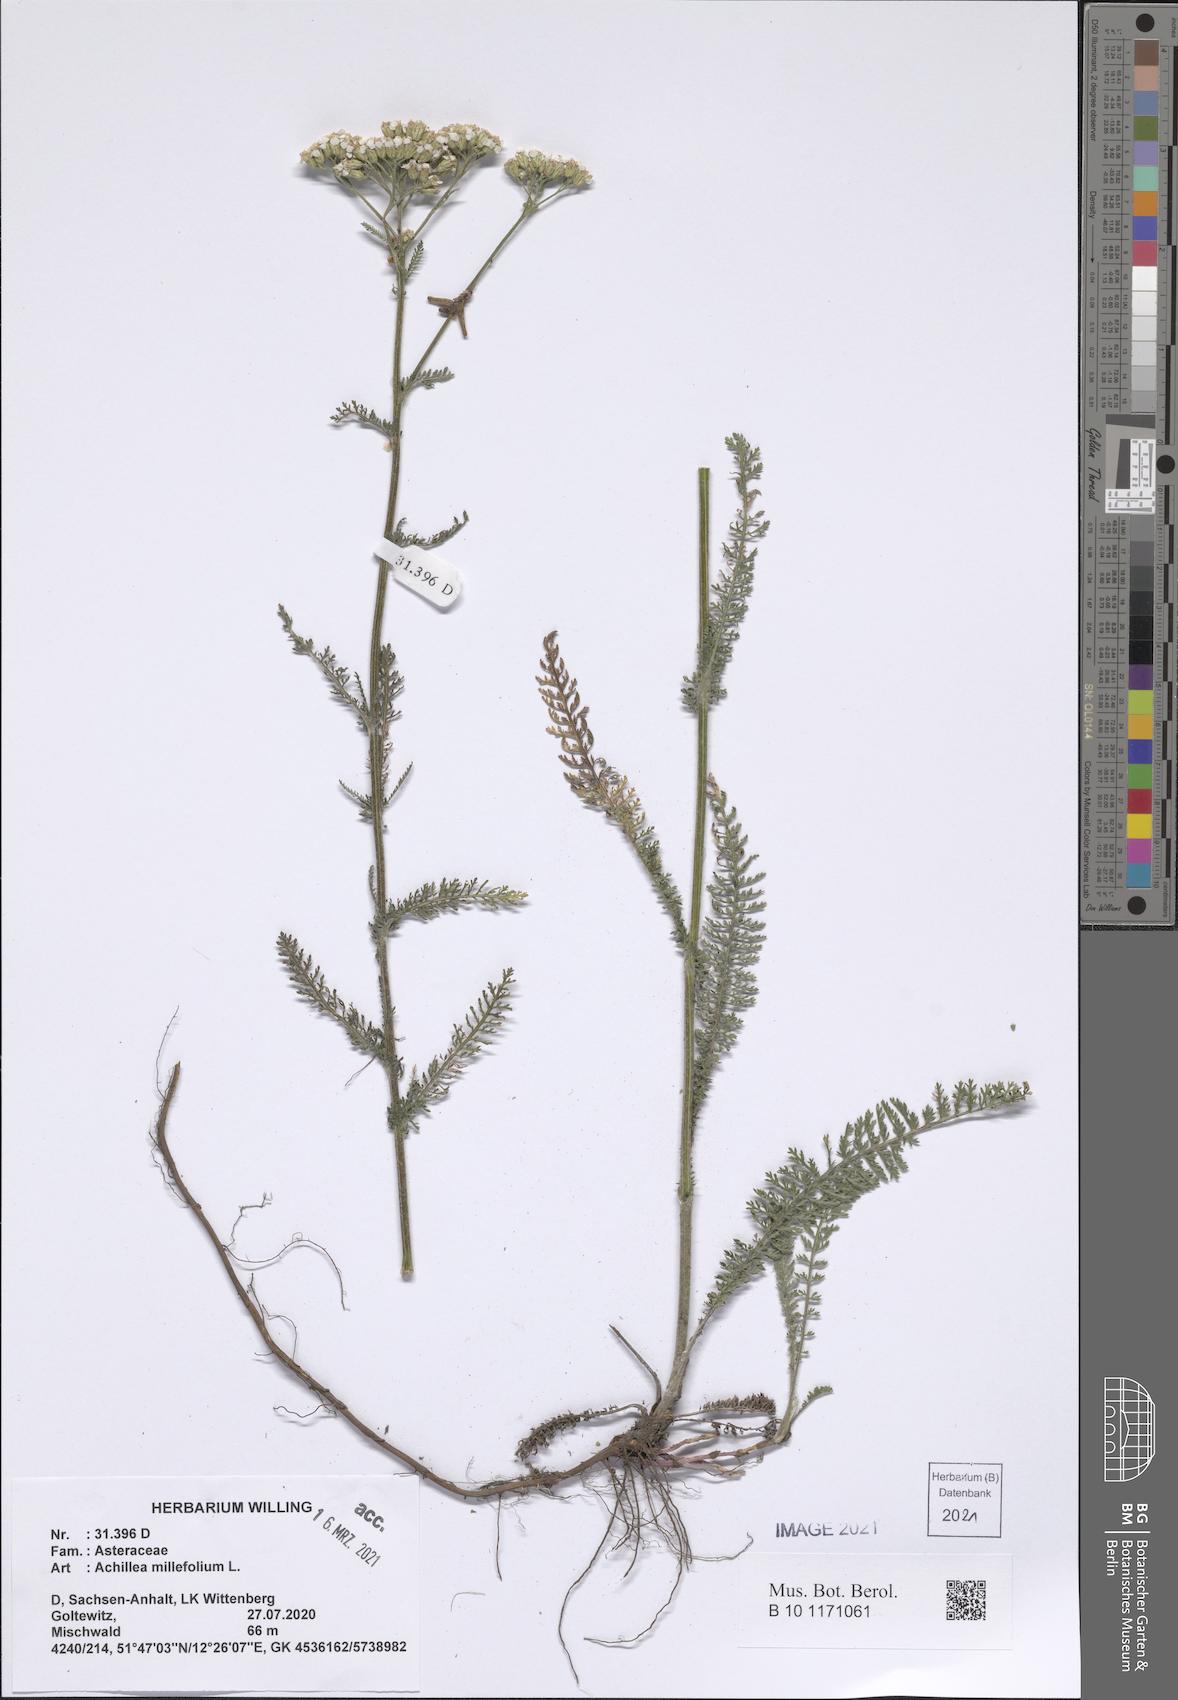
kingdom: Plantae
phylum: Tracheophyta
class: Magnoliopsida
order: Asterales
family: Asteraceae
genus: Achillea
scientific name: Achillea millefolium
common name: Yarrow
